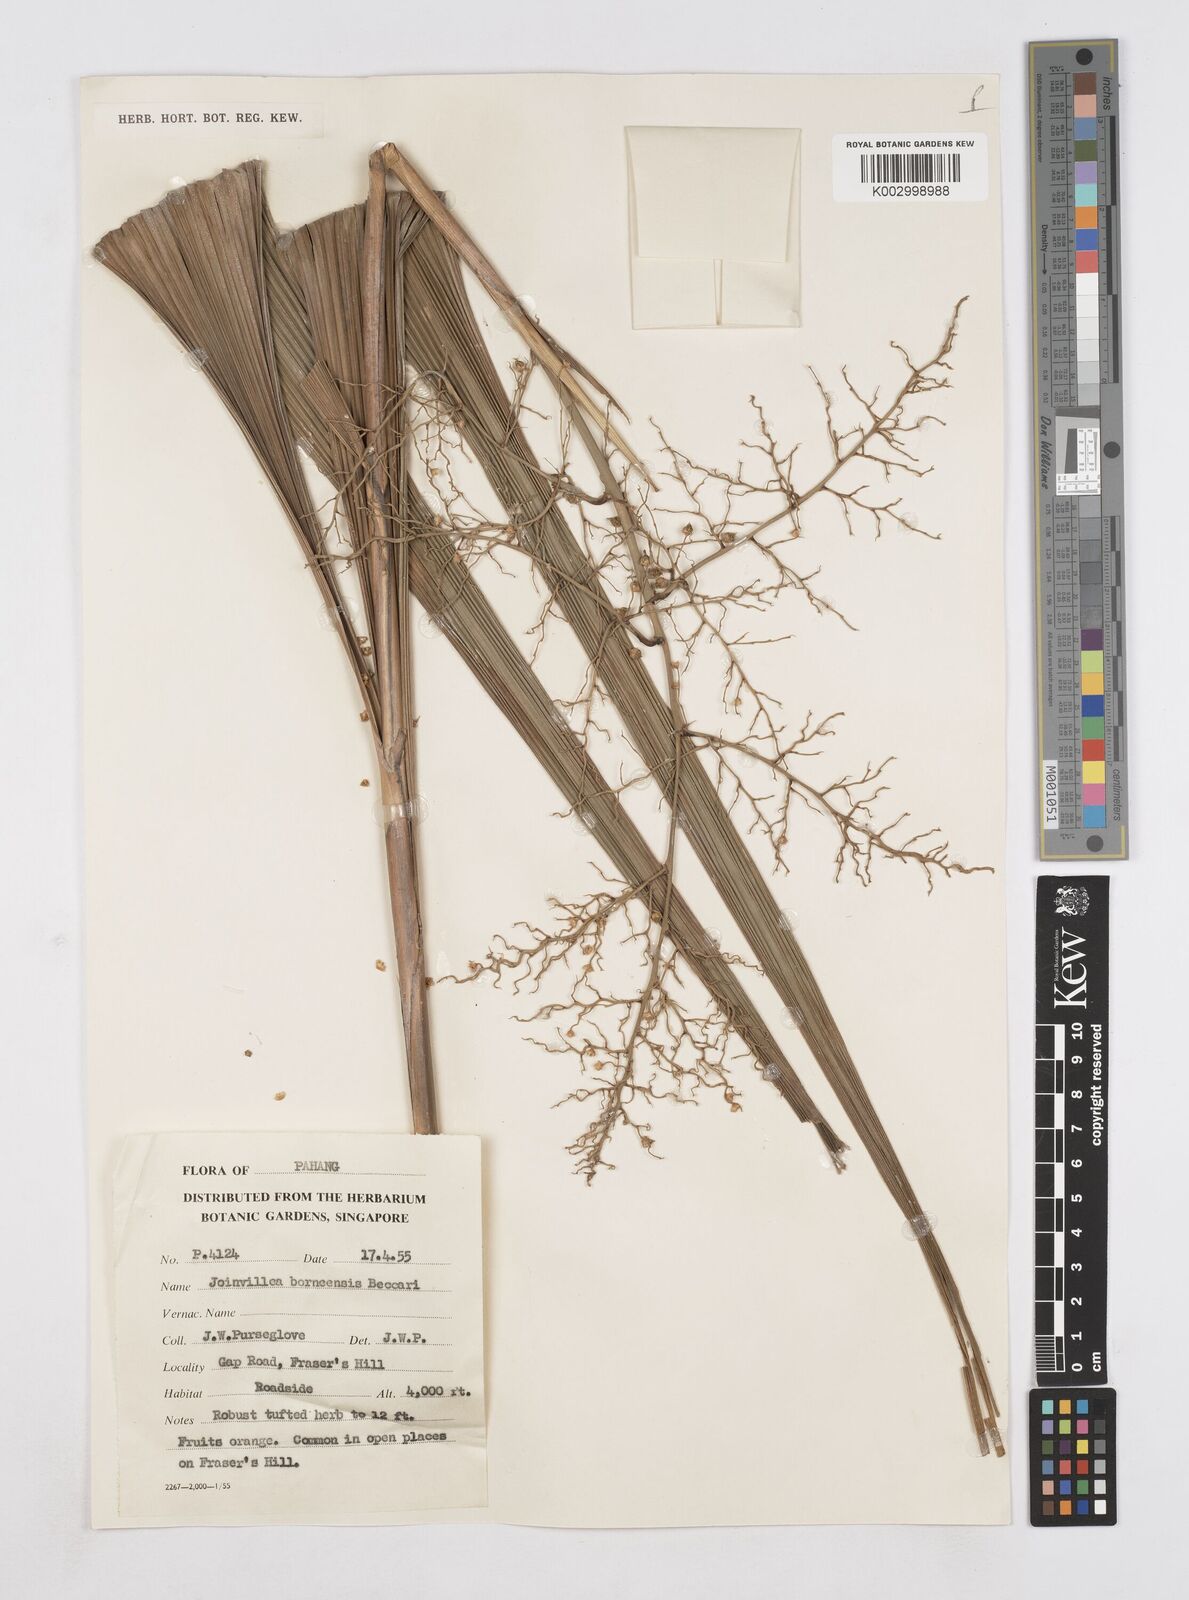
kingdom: Plantae
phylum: Tracheophyta
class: Liliopsida
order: Poales
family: Joinvilleaceae
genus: Joinvillea
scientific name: Joinvillea borneensis
